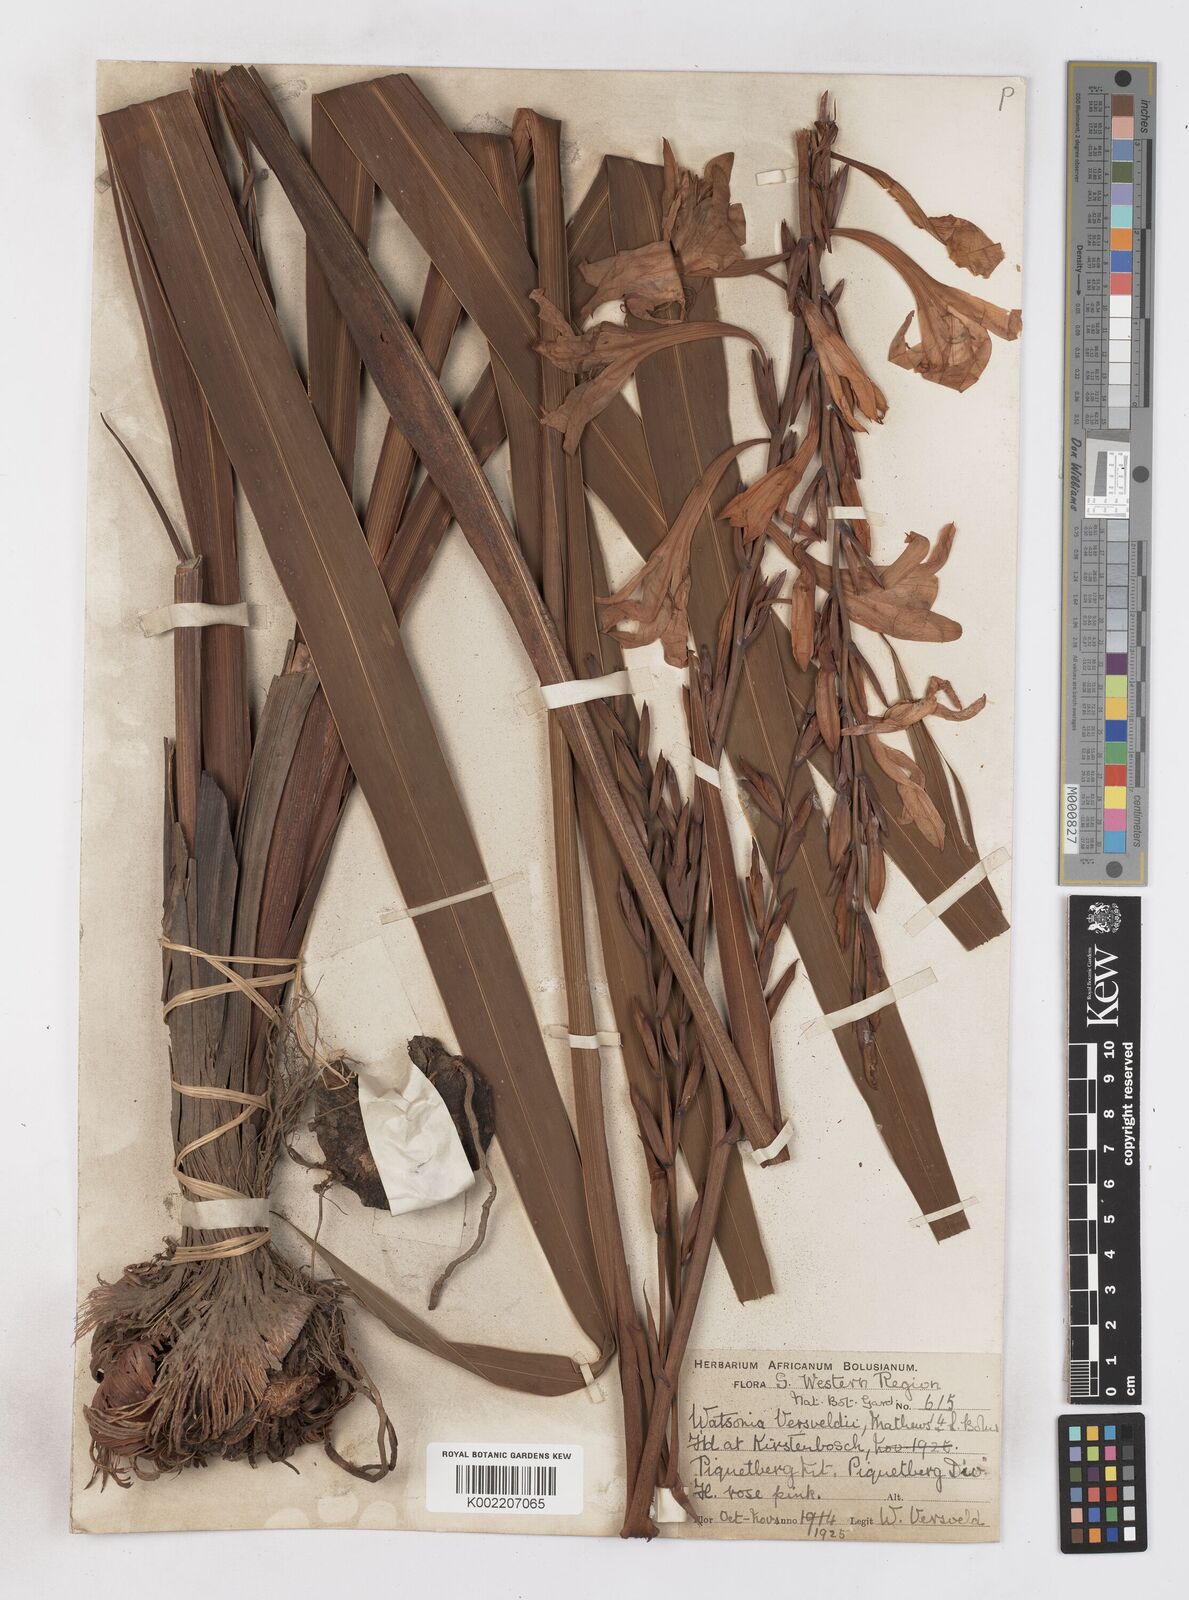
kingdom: Plantae
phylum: Tracheophyta
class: Liliopsida
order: Asparagales
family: Iridaceae
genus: Watsonia
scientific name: Watsonia versfeldii
